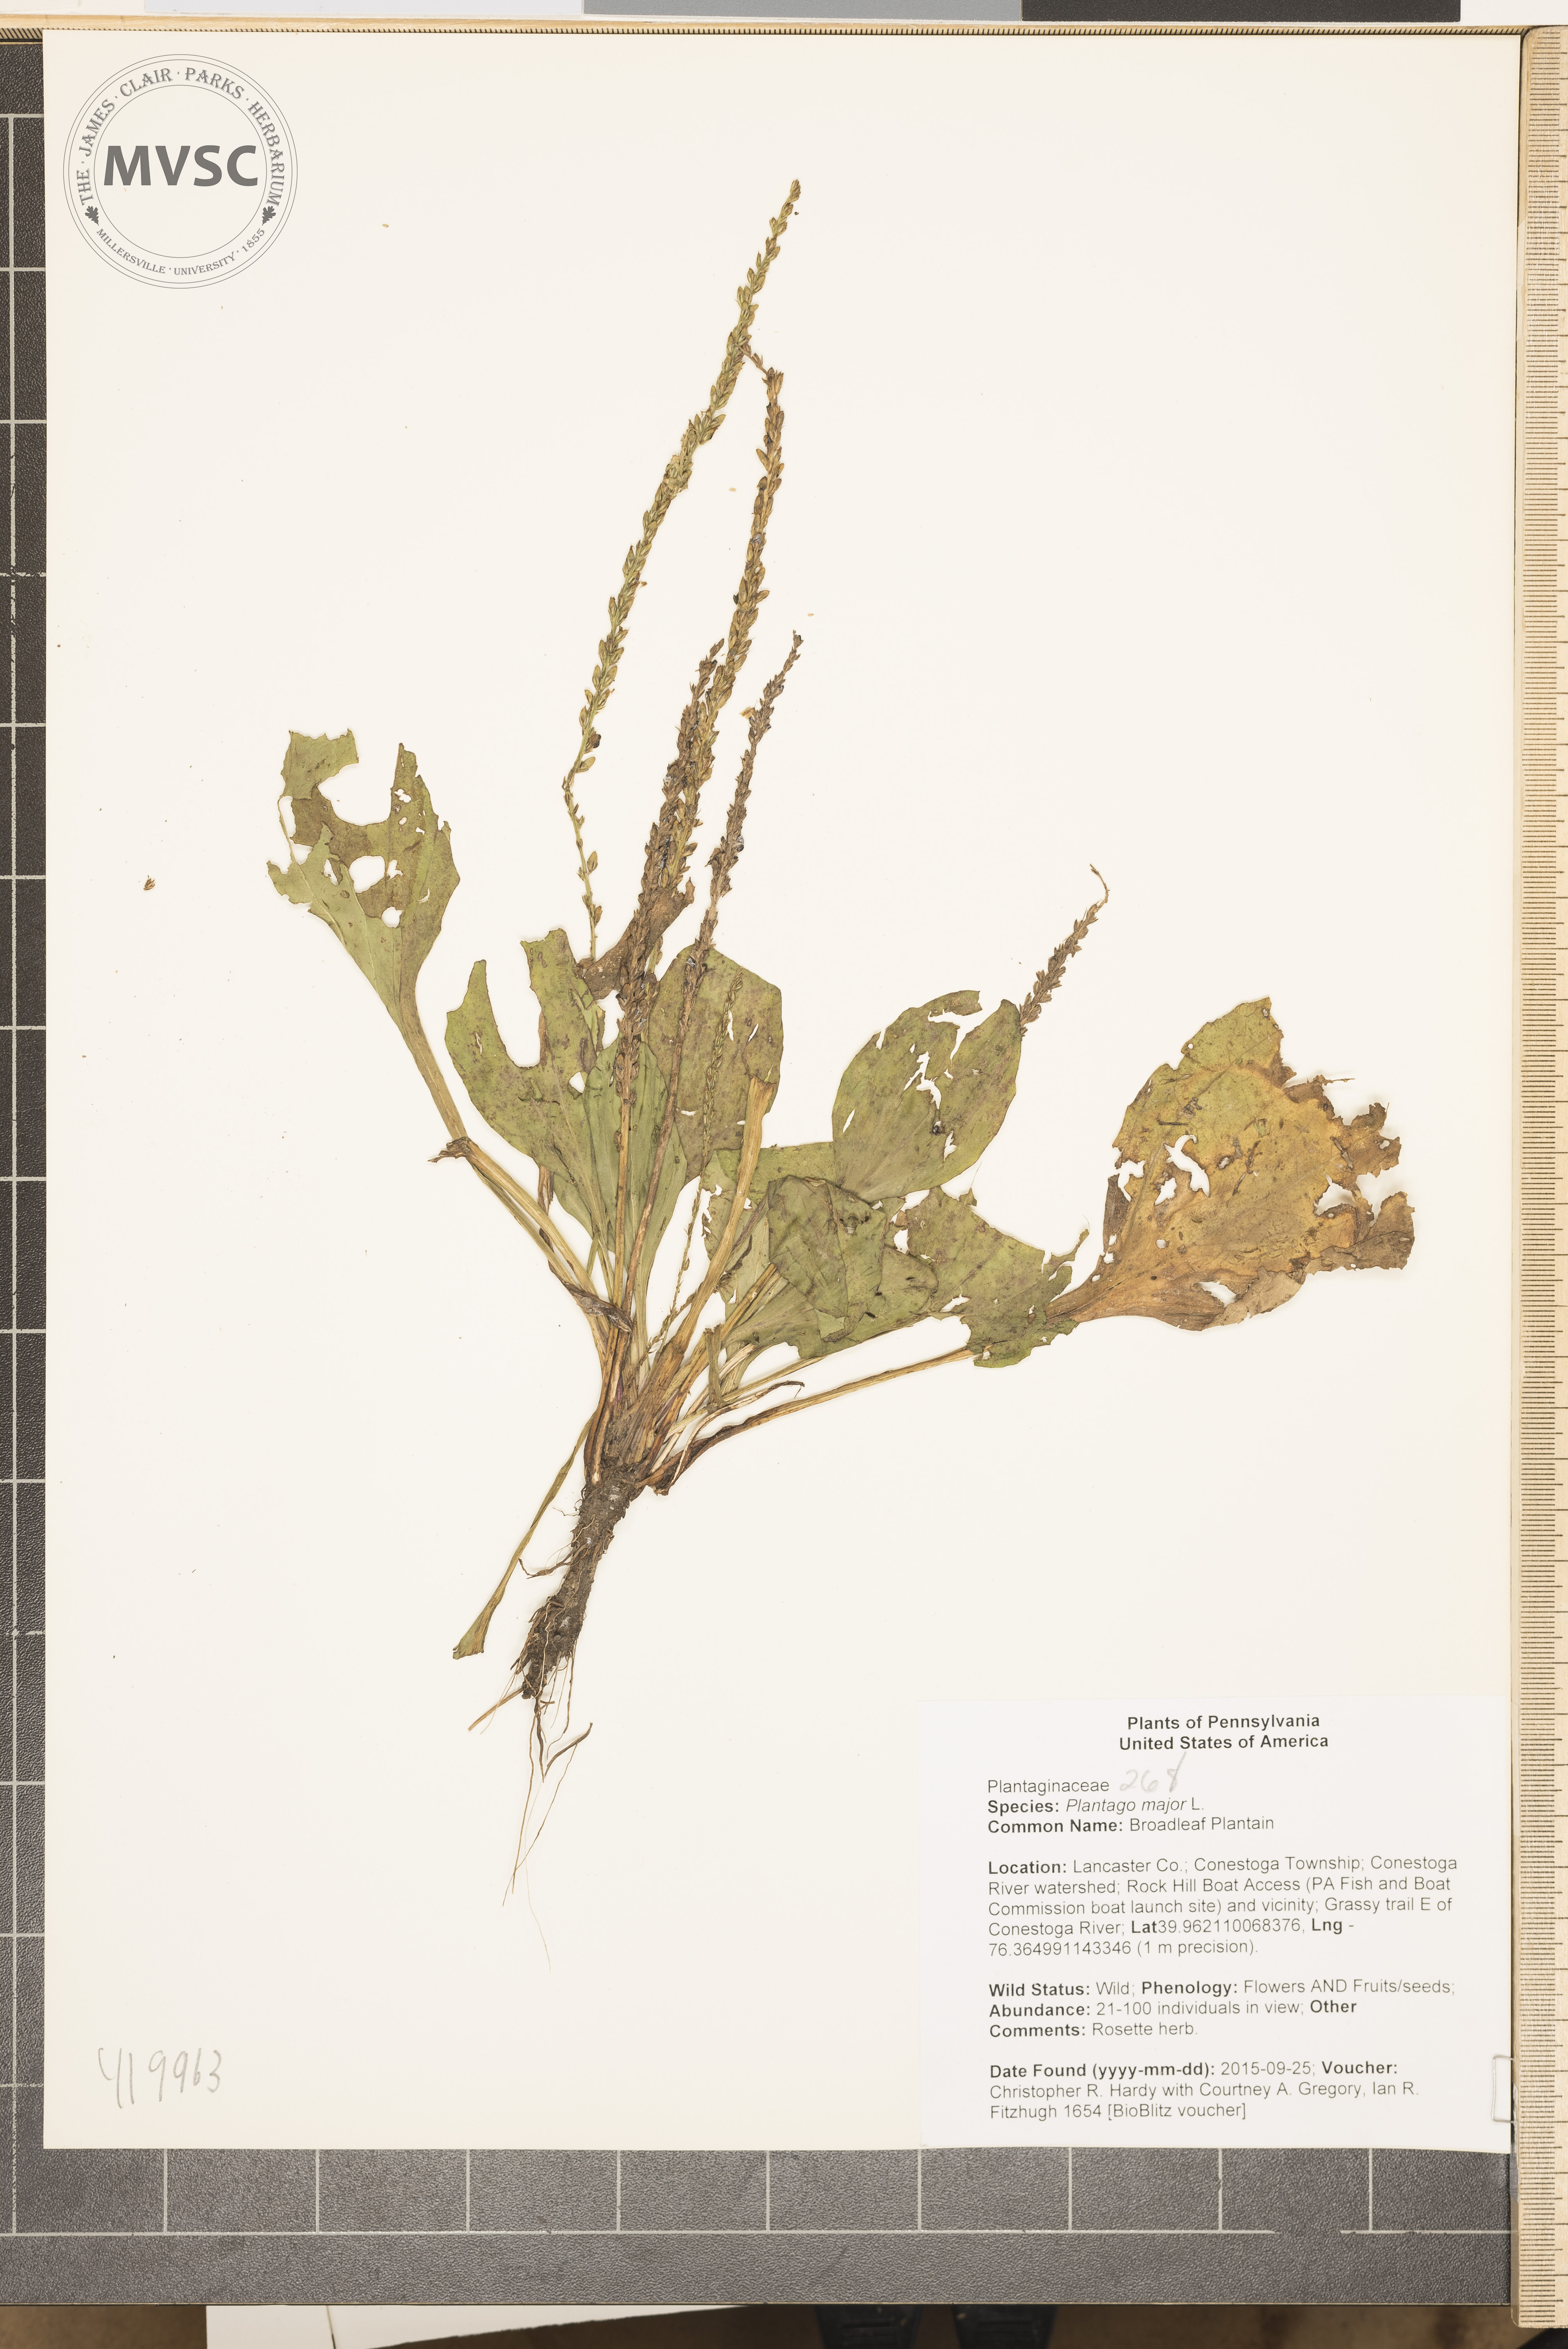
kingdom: Plantae
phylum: Tracheophyta
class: Magnoliopsida
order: Lamiales
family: Plantaginaceae
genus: Plantago
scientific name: Plantago major
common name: Broadleaf Plantain
